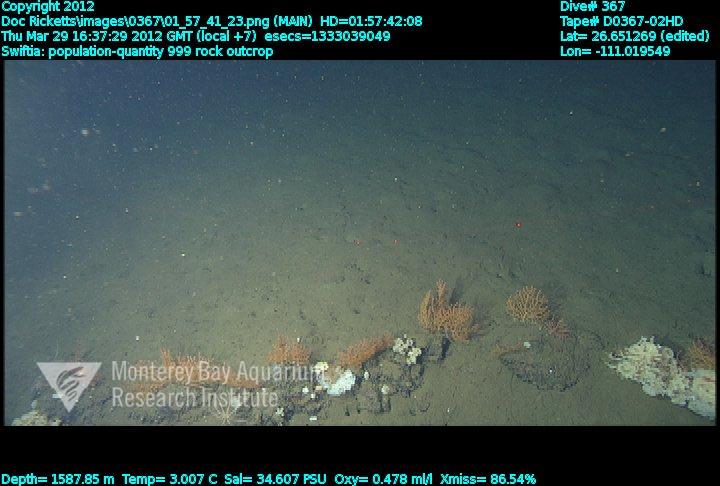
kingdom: Animalia
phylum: Cnidaria
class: Anthozoa
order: Malacalcyonacea
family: Plexauridae
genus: Swiftia
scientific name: Swiftia
